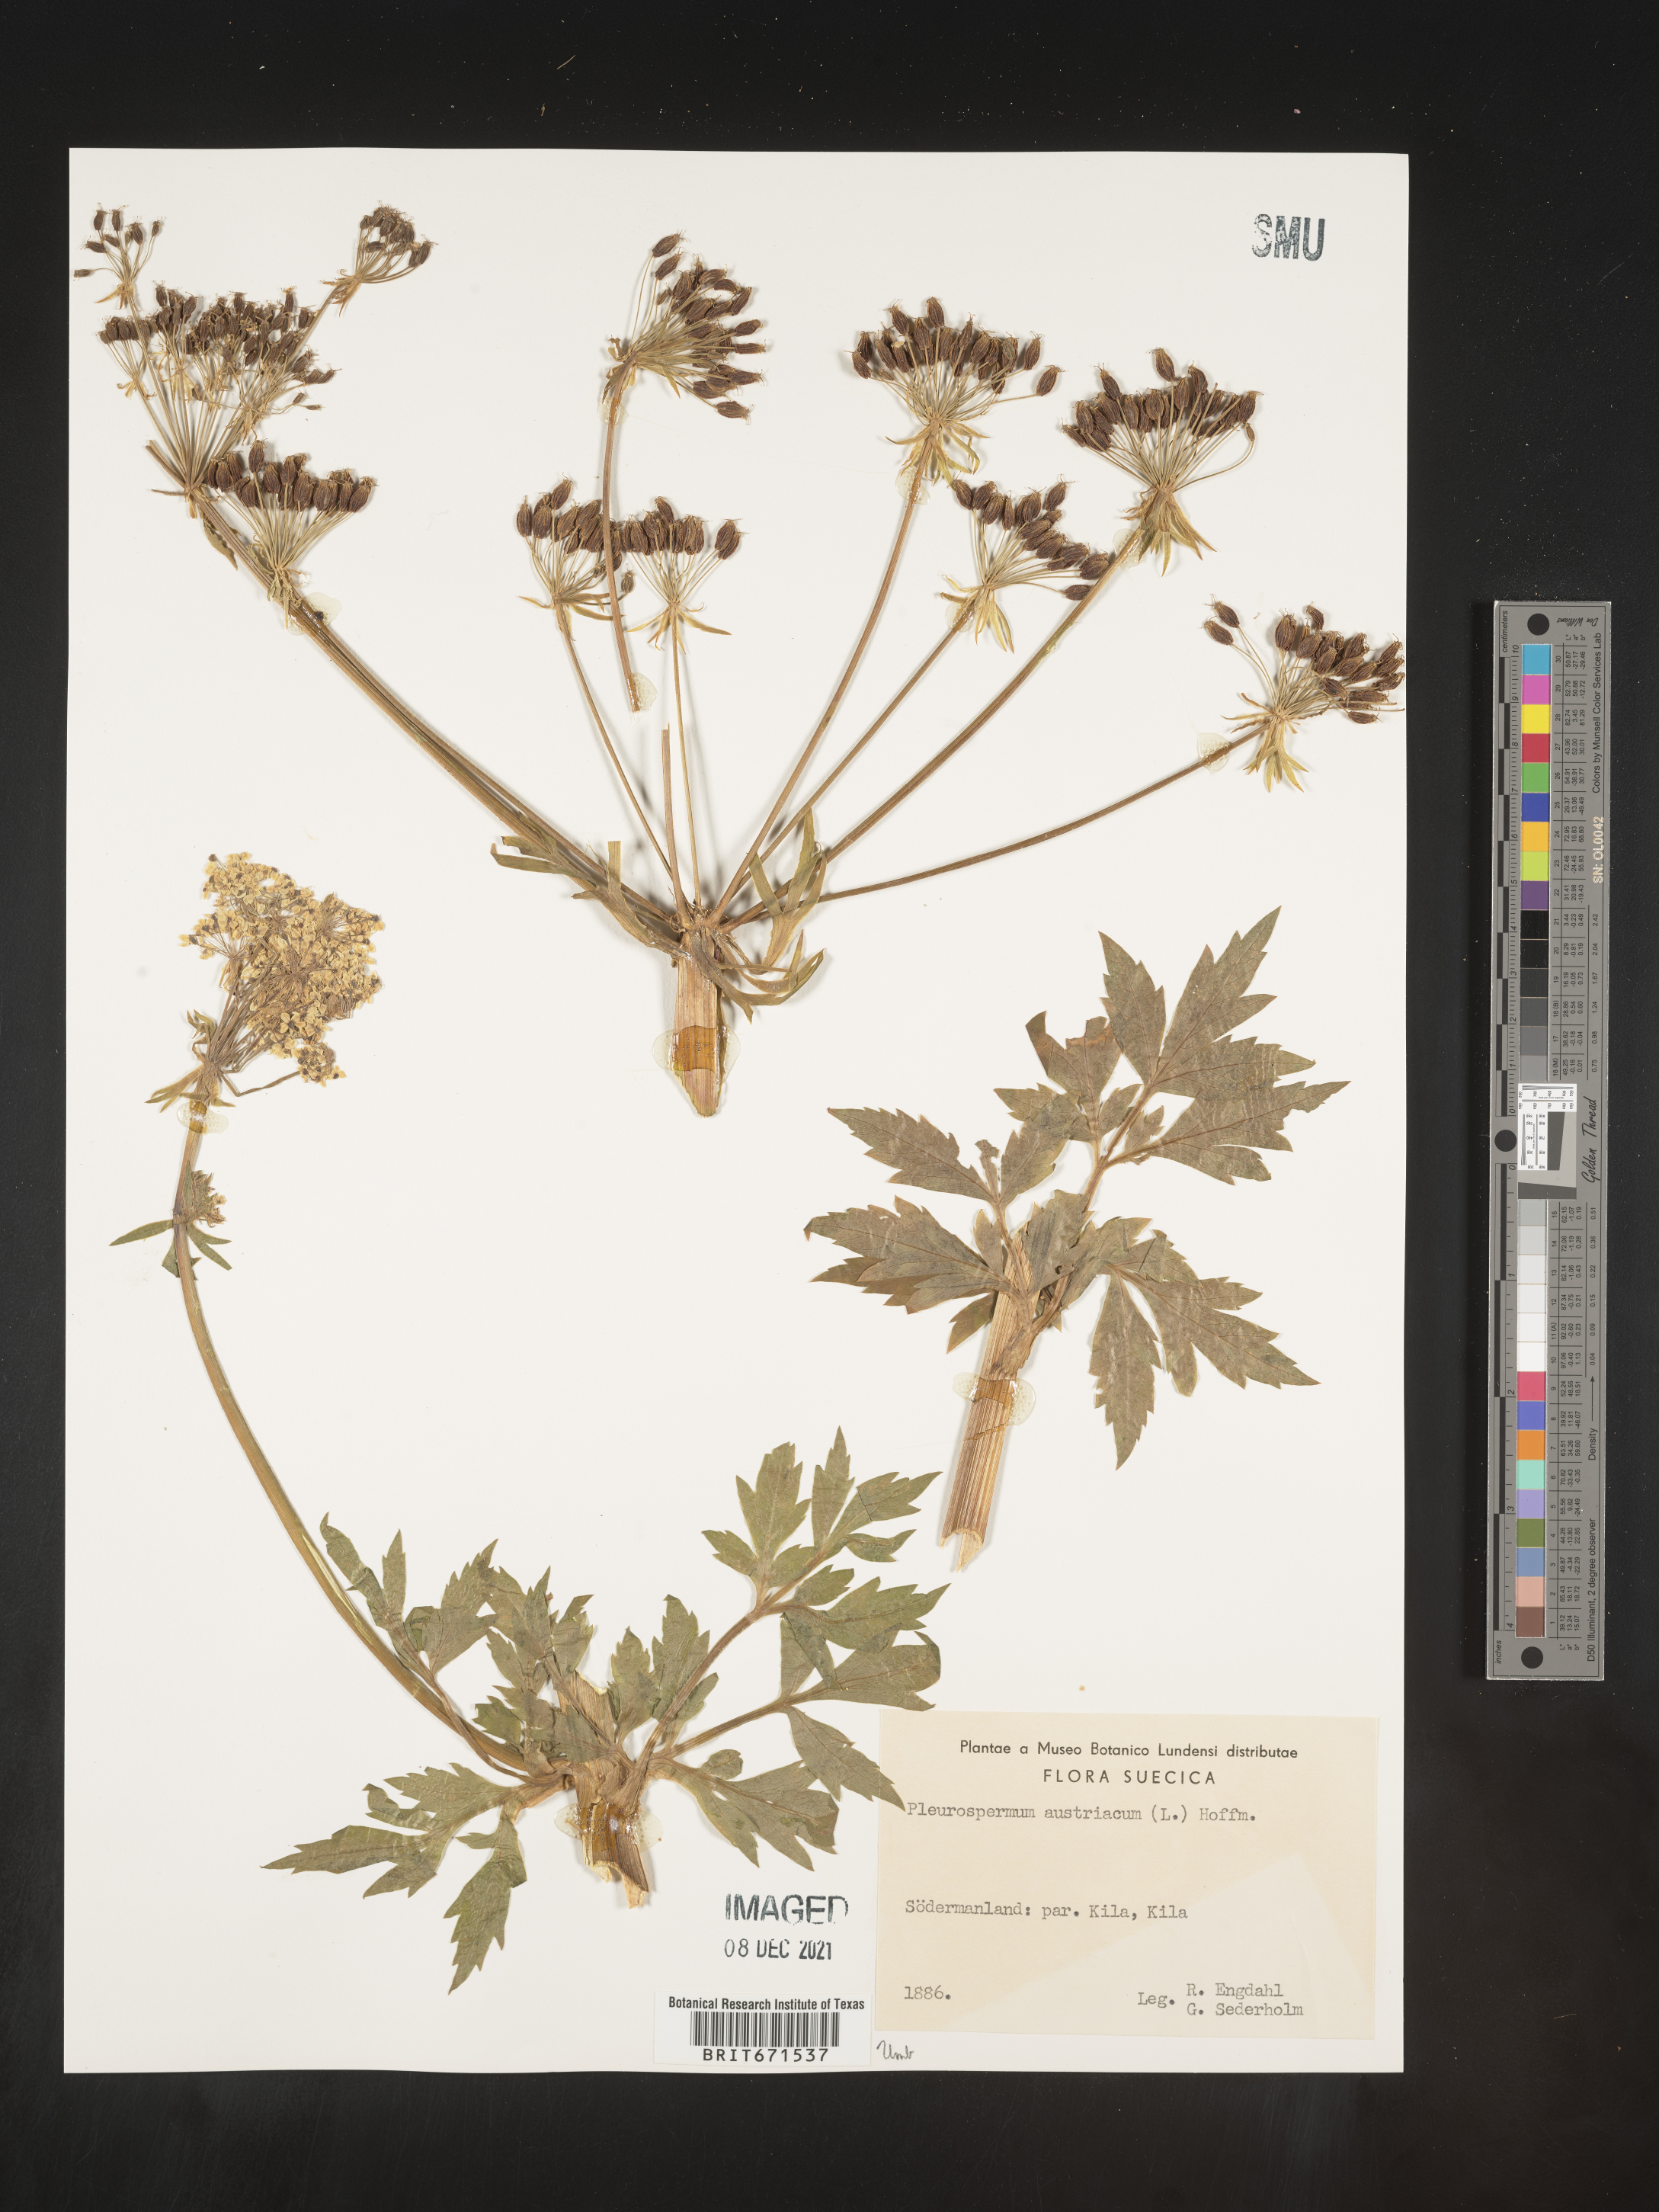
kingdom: Plantae
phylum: Tracheophyta
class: Magnoliopsida
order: Apiales
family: Apiaceae
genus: Pleurospermum
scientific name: Pleurospermum
